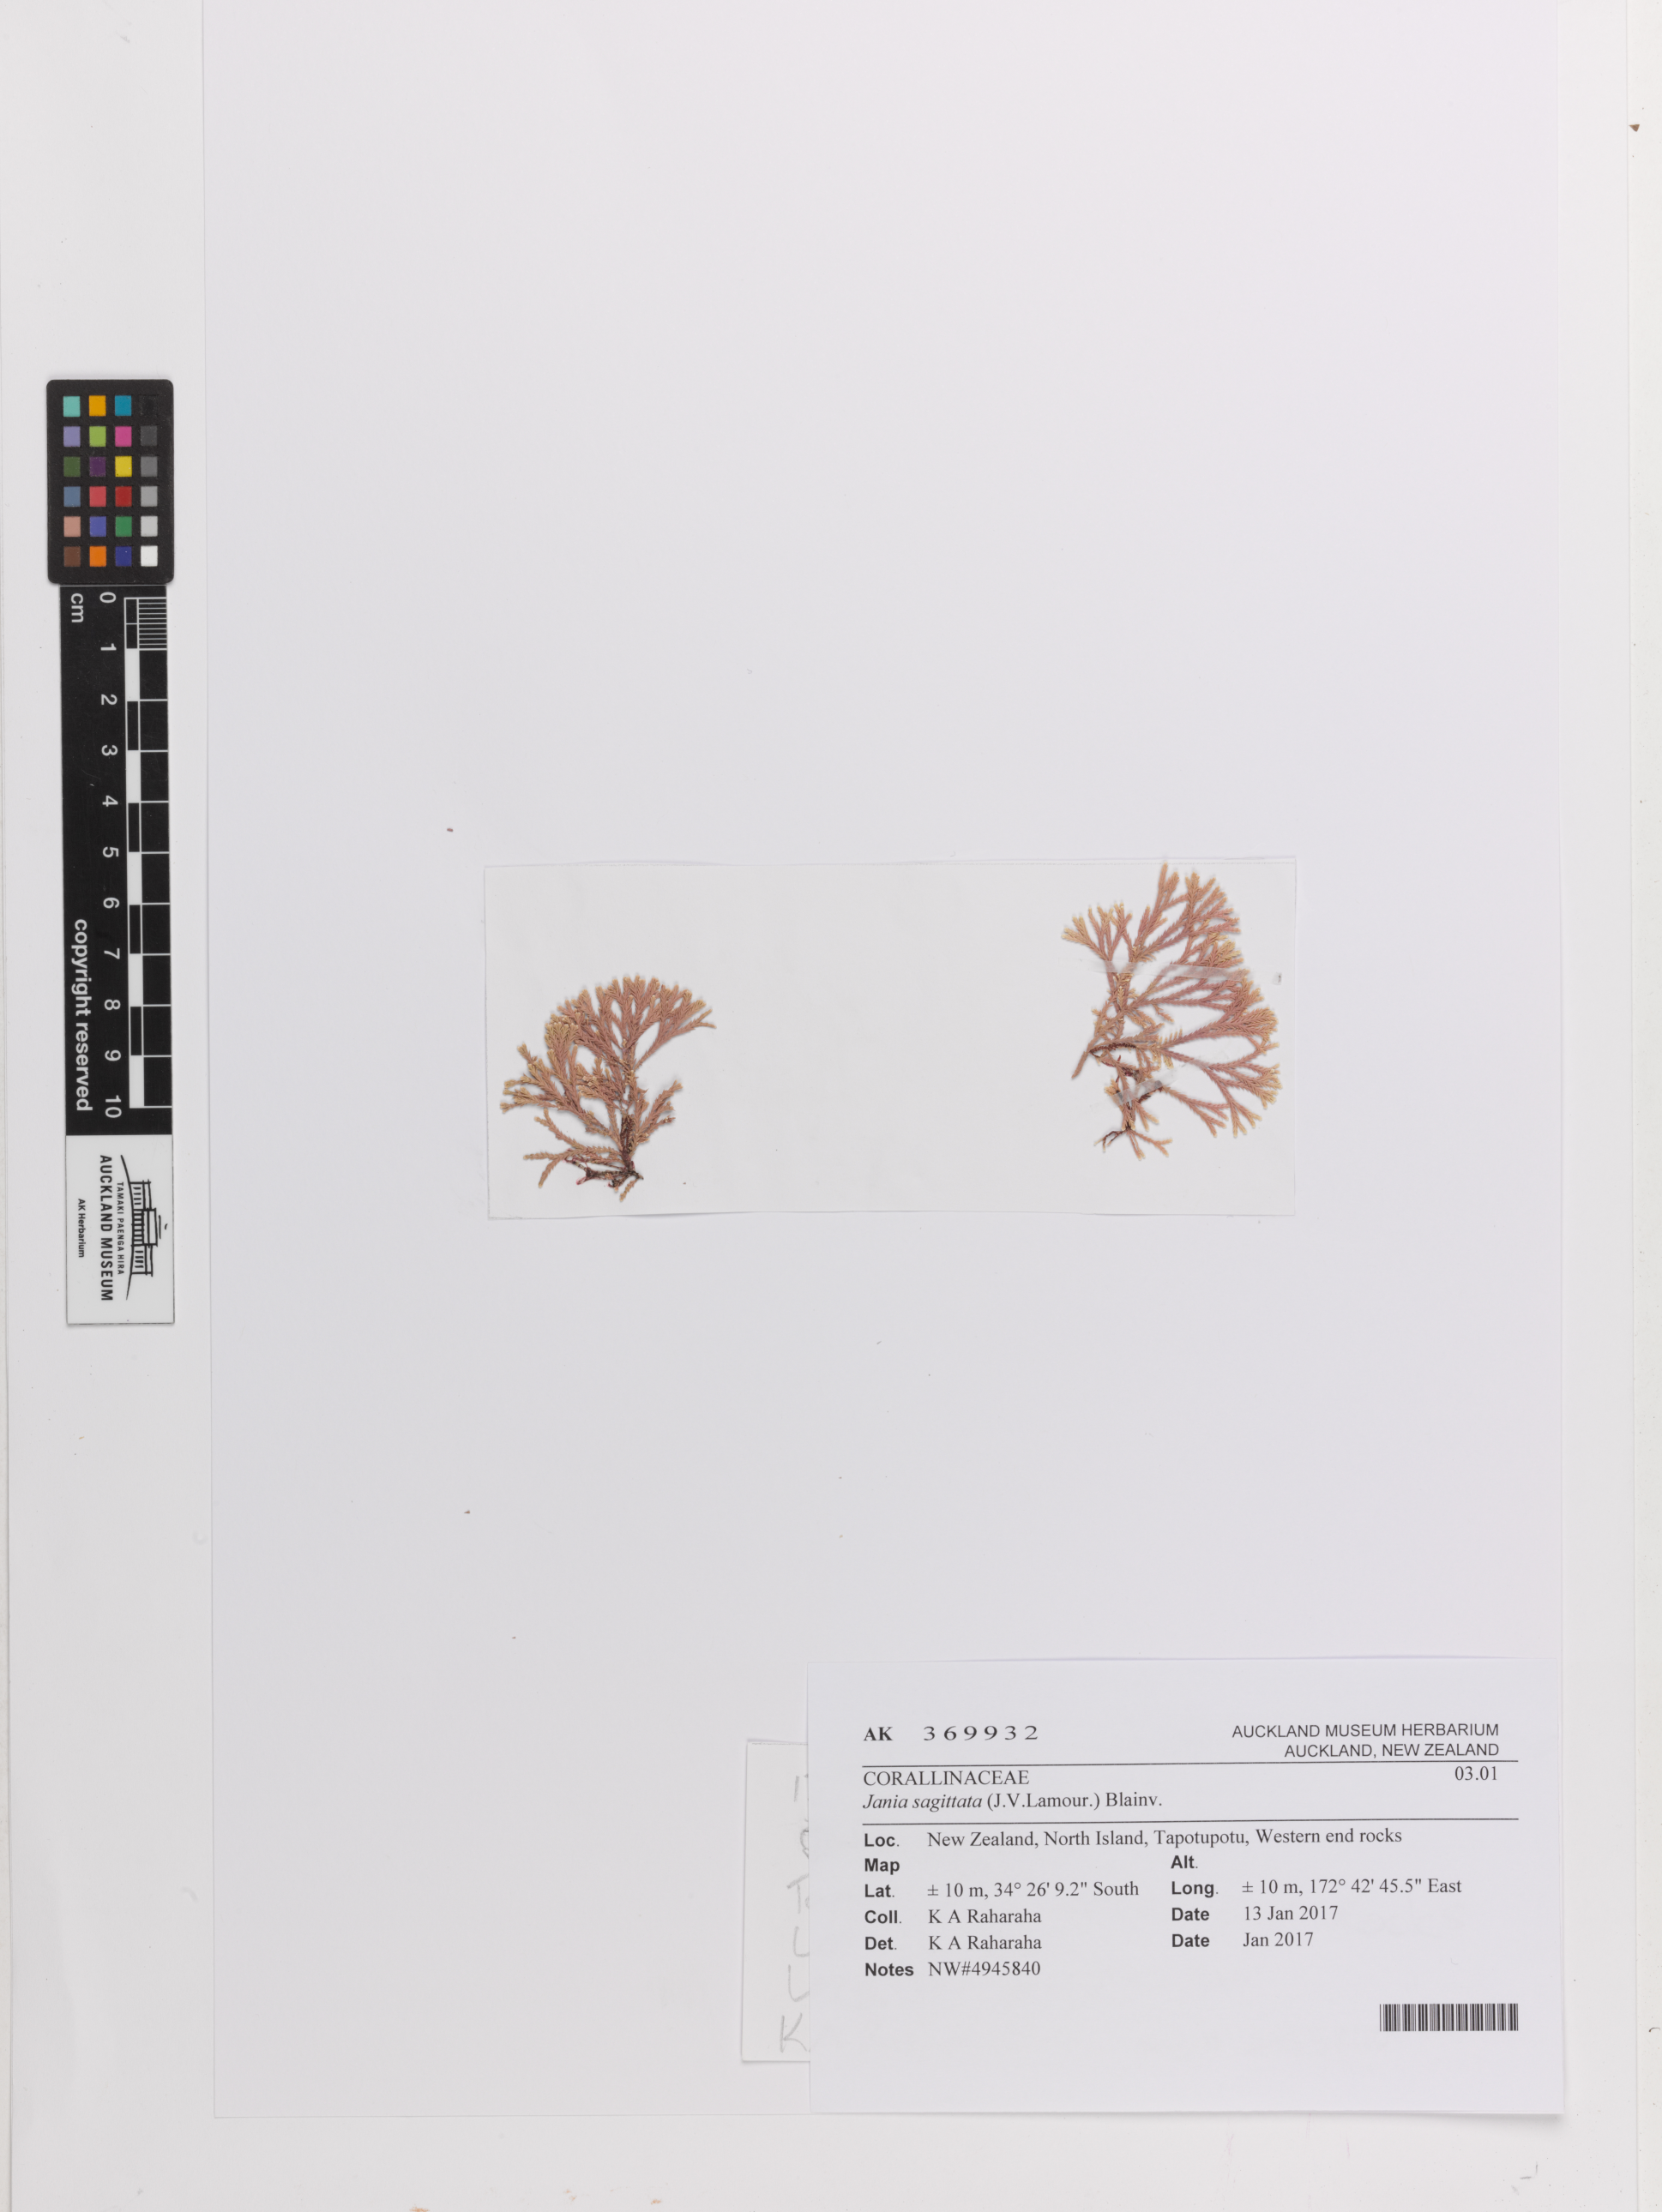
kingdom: Plantae
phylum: Rhodophyta
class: Florideophyceae
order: Corallinales
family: Corallinaceae
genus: Jania
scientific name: Jania sagittata
